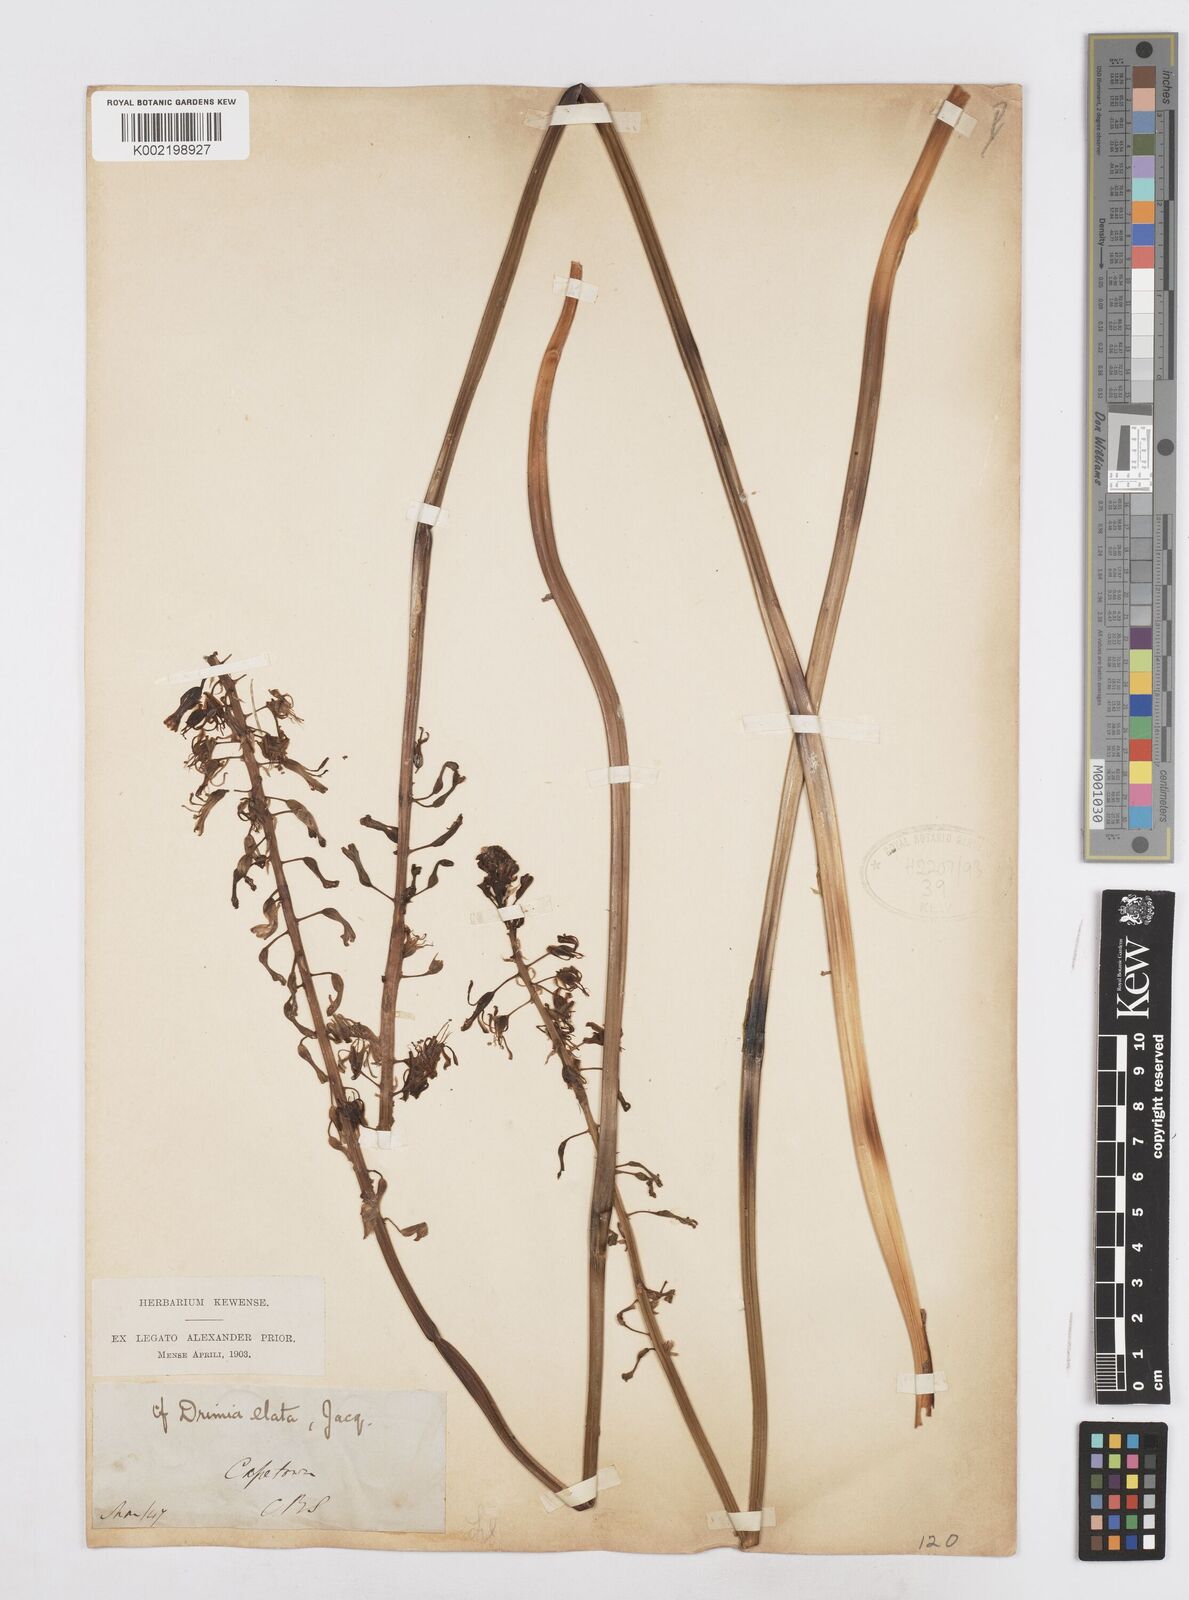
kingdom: Plantae
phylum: Tracheophyta
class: Liliopsida
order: Asparagales
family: Asparagaceae
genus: Drimia
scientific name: Drimia elata
